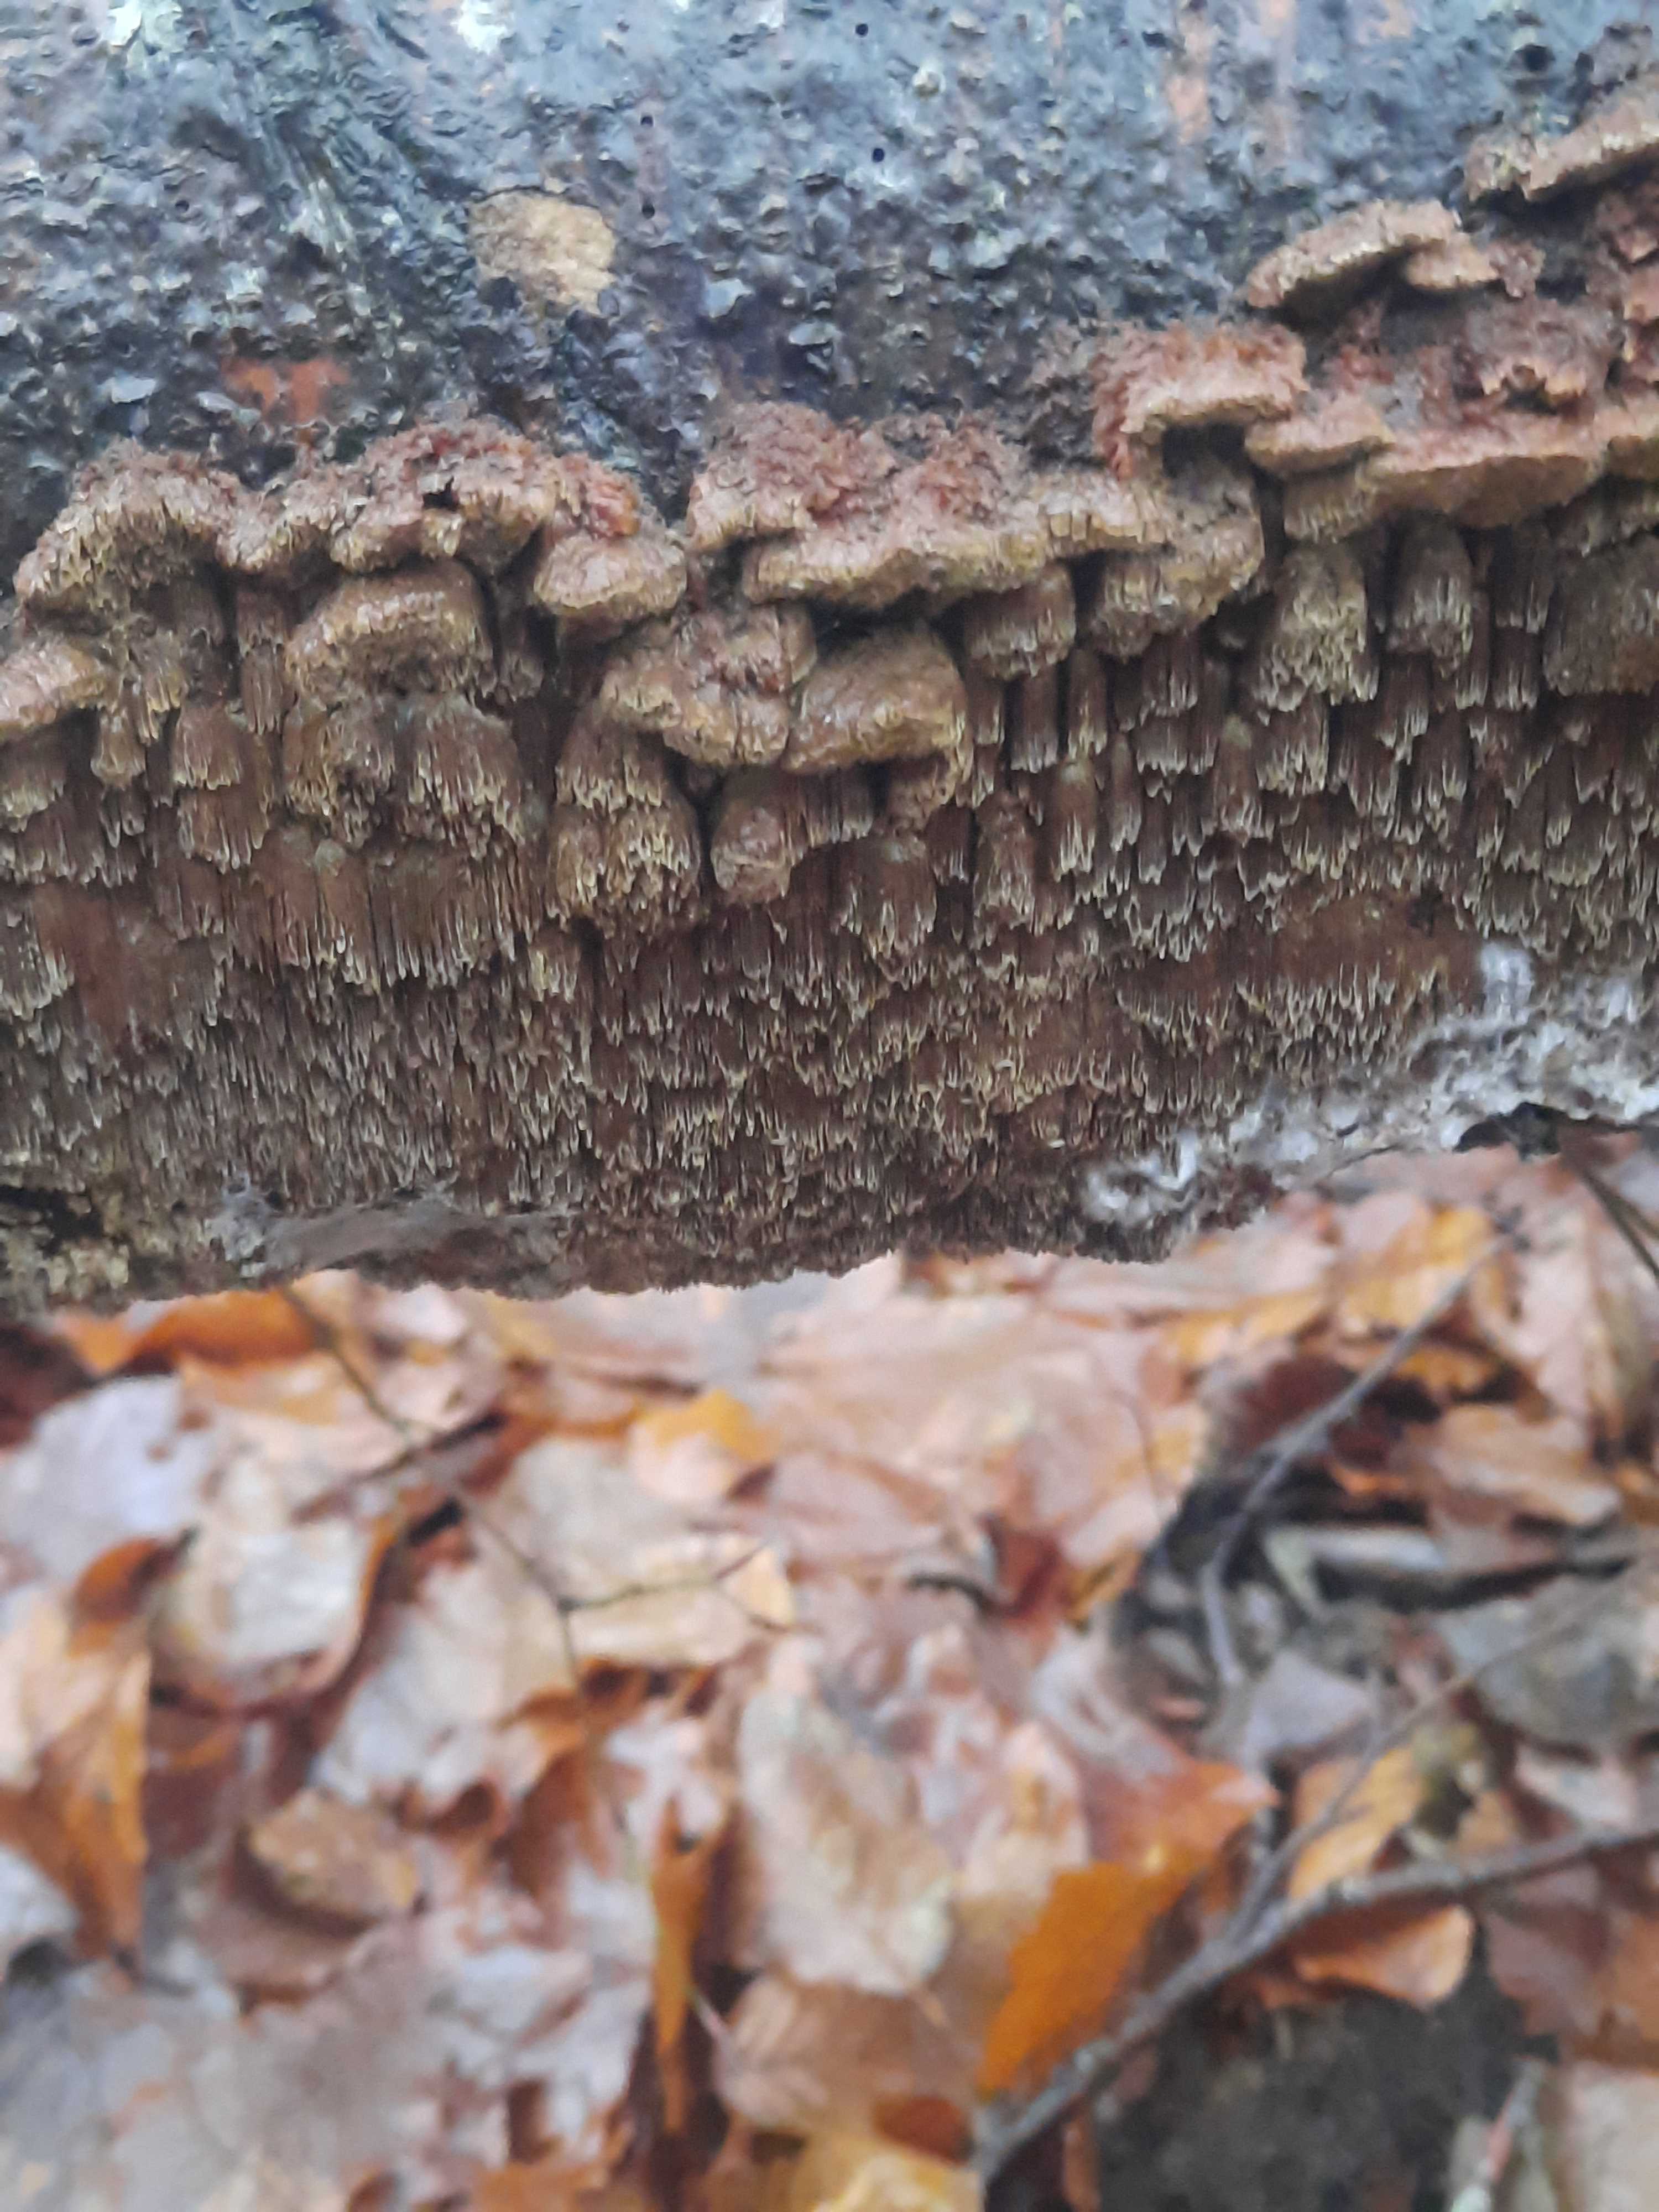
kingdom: Fungi
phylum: Basidiomycota
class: Agaricomycetes
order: Hymenochaetales
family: Hymenochaetaceae
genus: Mensularia
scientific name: Mensularia nodulosa
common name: bøge-spejlporesvamp
